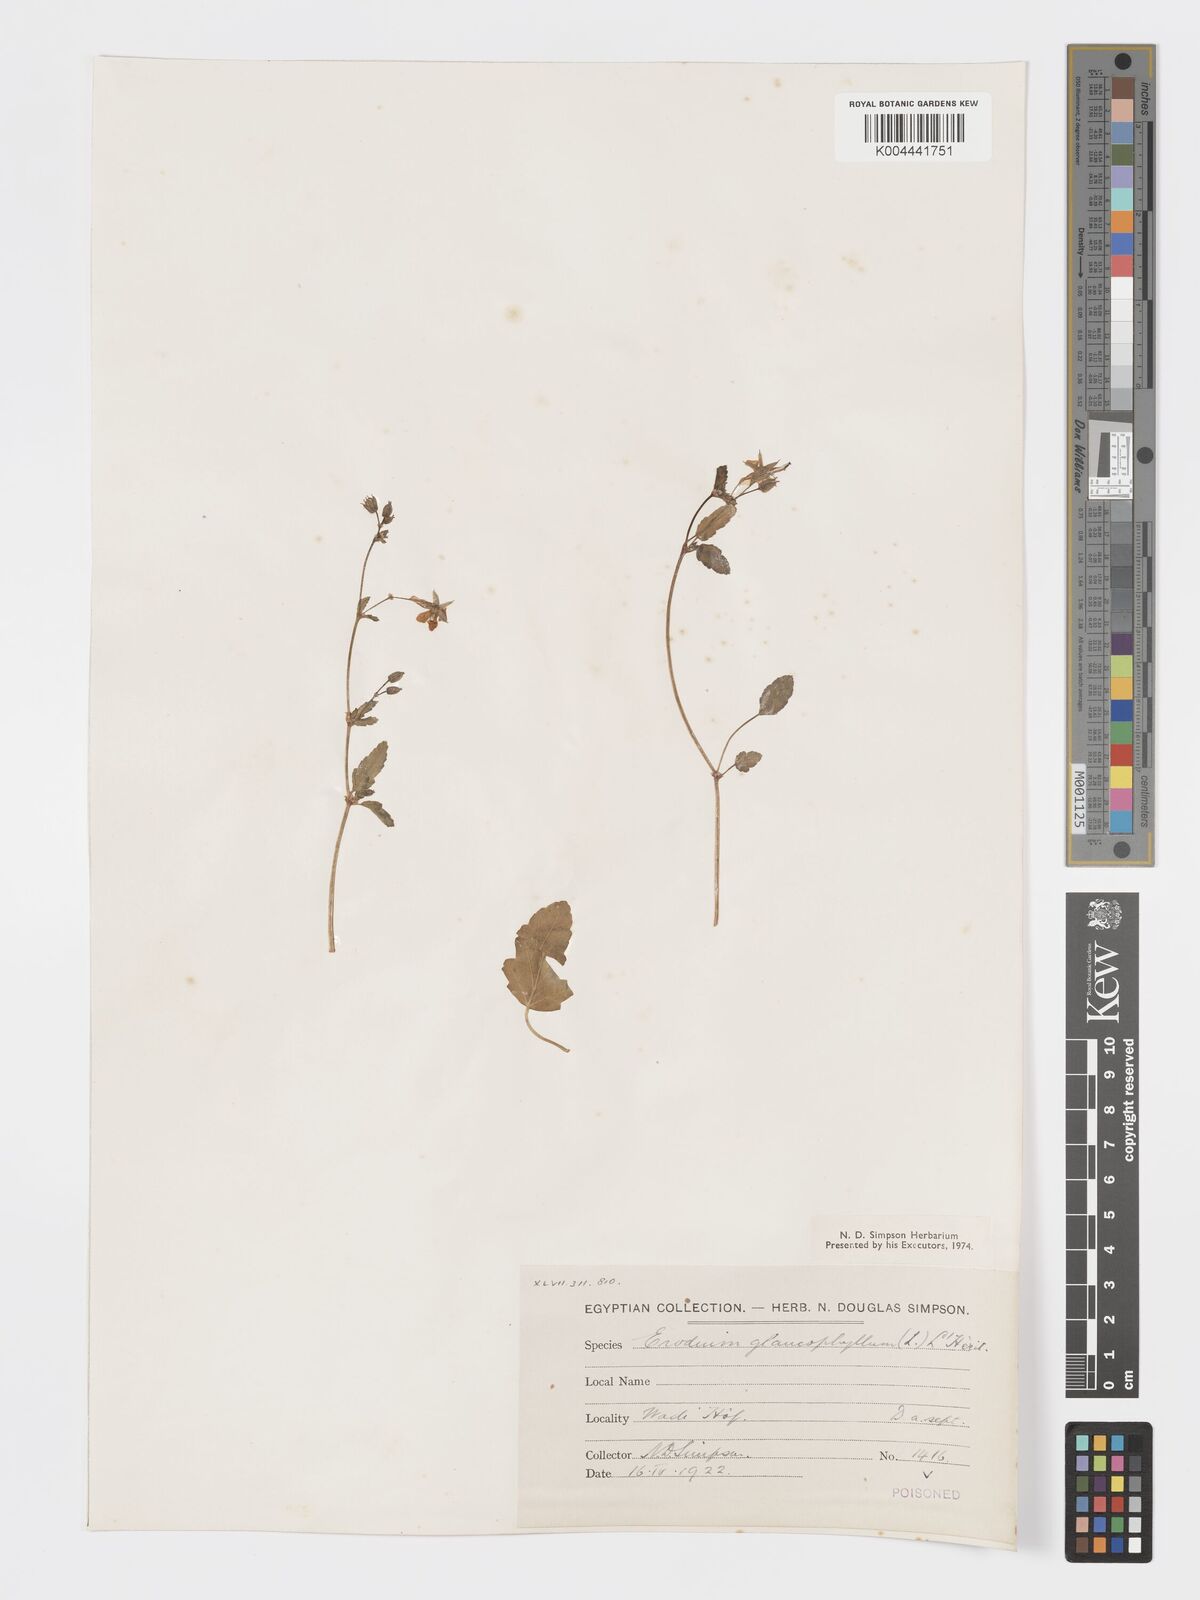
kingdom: Plantae
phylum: Tracheophyta
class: Magnoliopsida
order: Geraniales
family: Geraniaceae
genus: Erodium
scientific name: Erodium glaucophyllum
